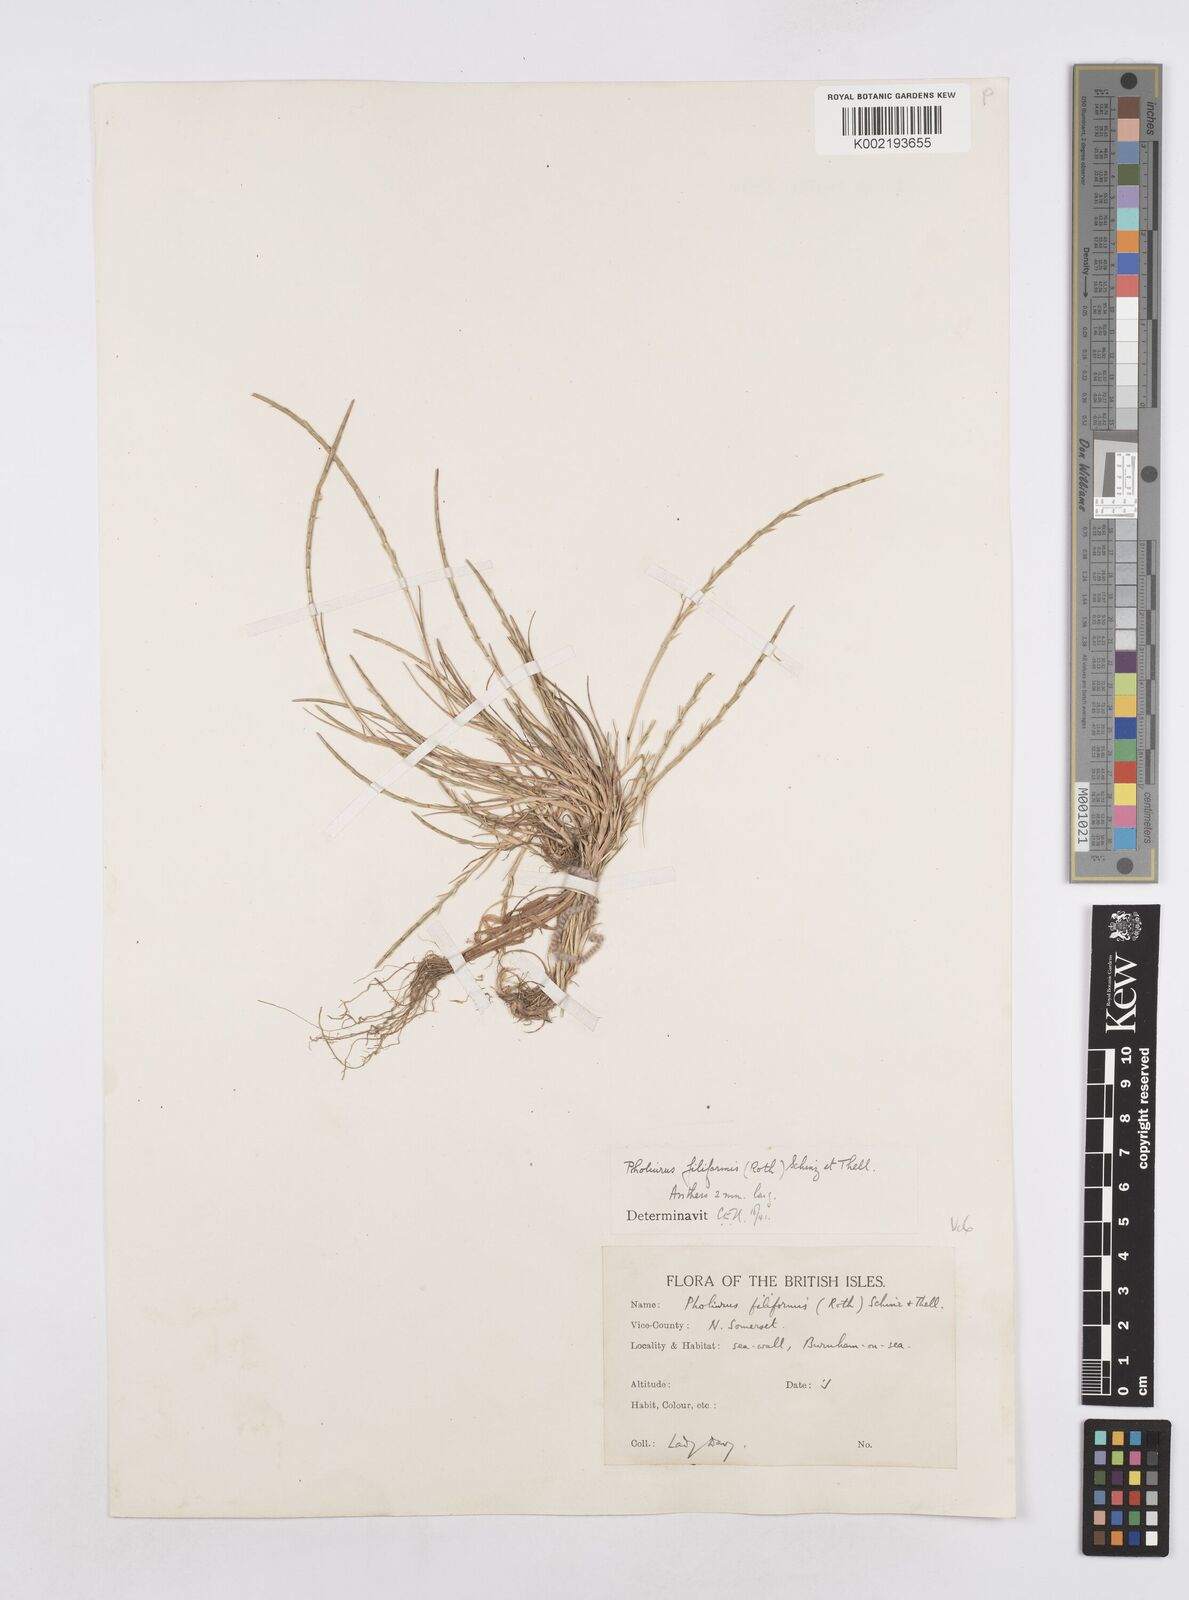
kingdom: Plantae
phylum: Tracheophyta
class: Liliopsida
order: Poales
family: Poaceae
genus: Parapholis
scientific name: Parapholis strigosa
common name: Hard-grass
